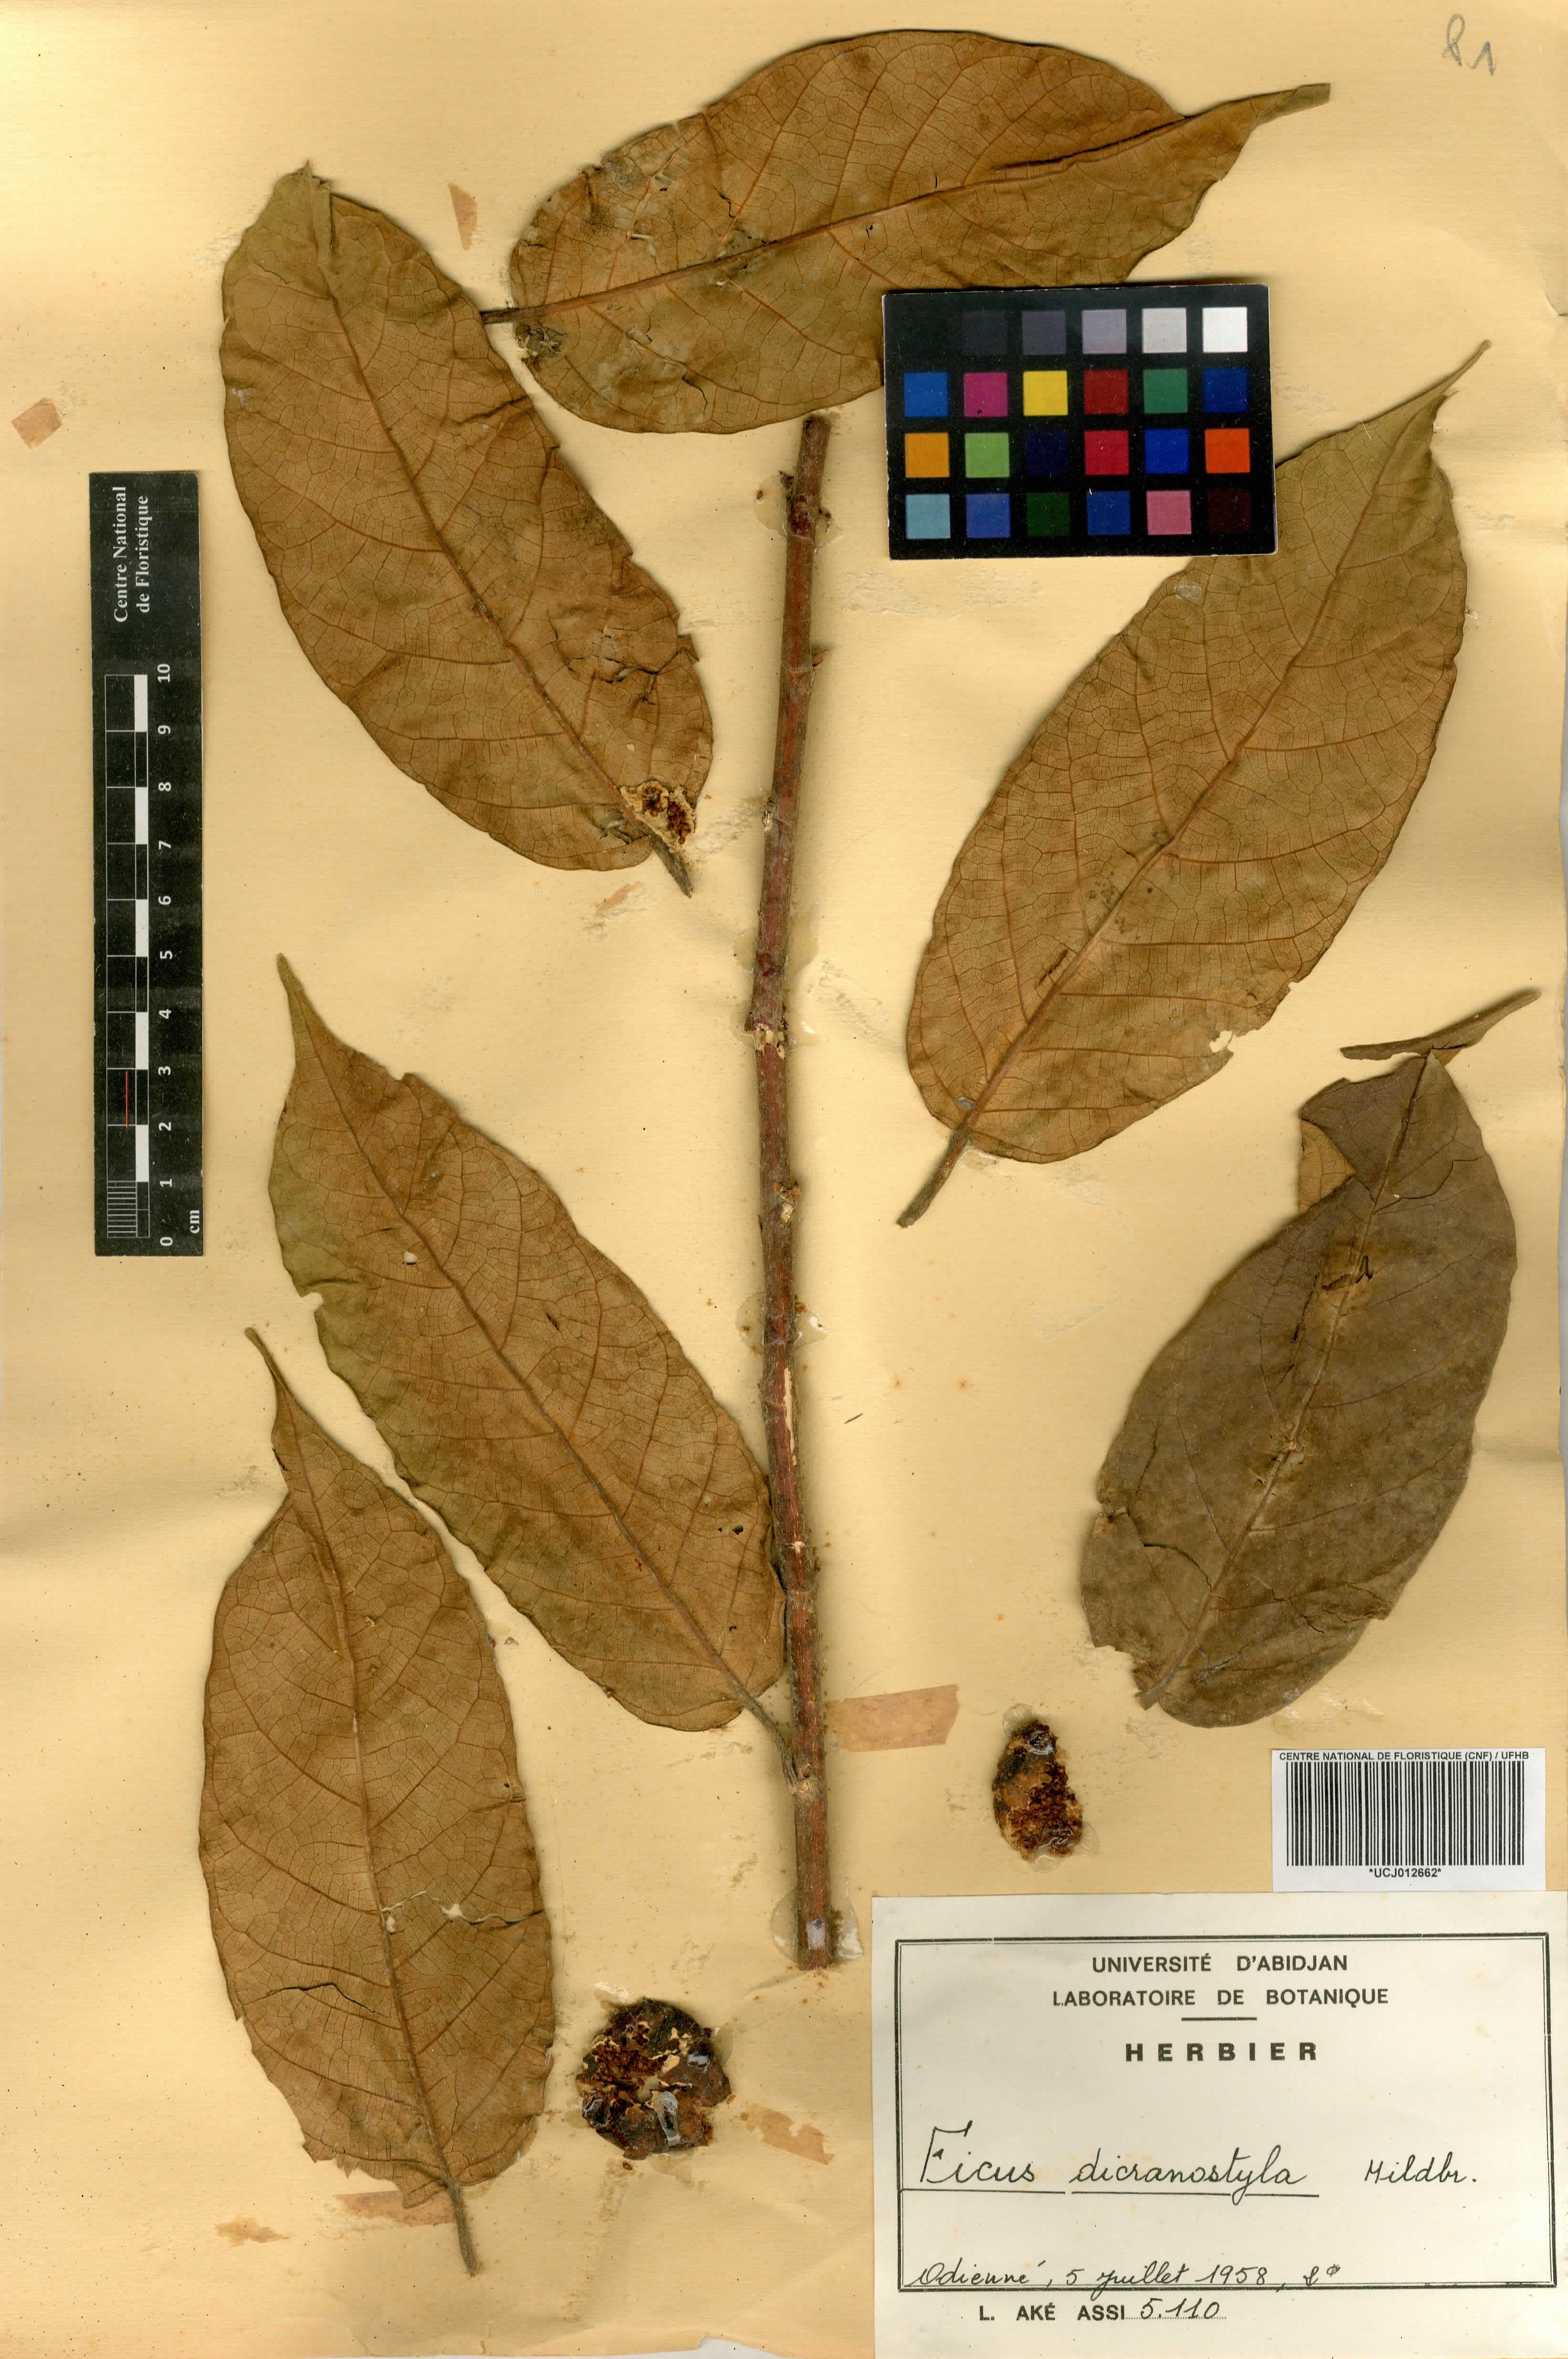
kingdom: Plantae
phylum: Tracheophyta
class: Magnoliopsida
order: Rosales
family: Moraceae
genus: Ficus
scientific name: Ficus dicranostyla
